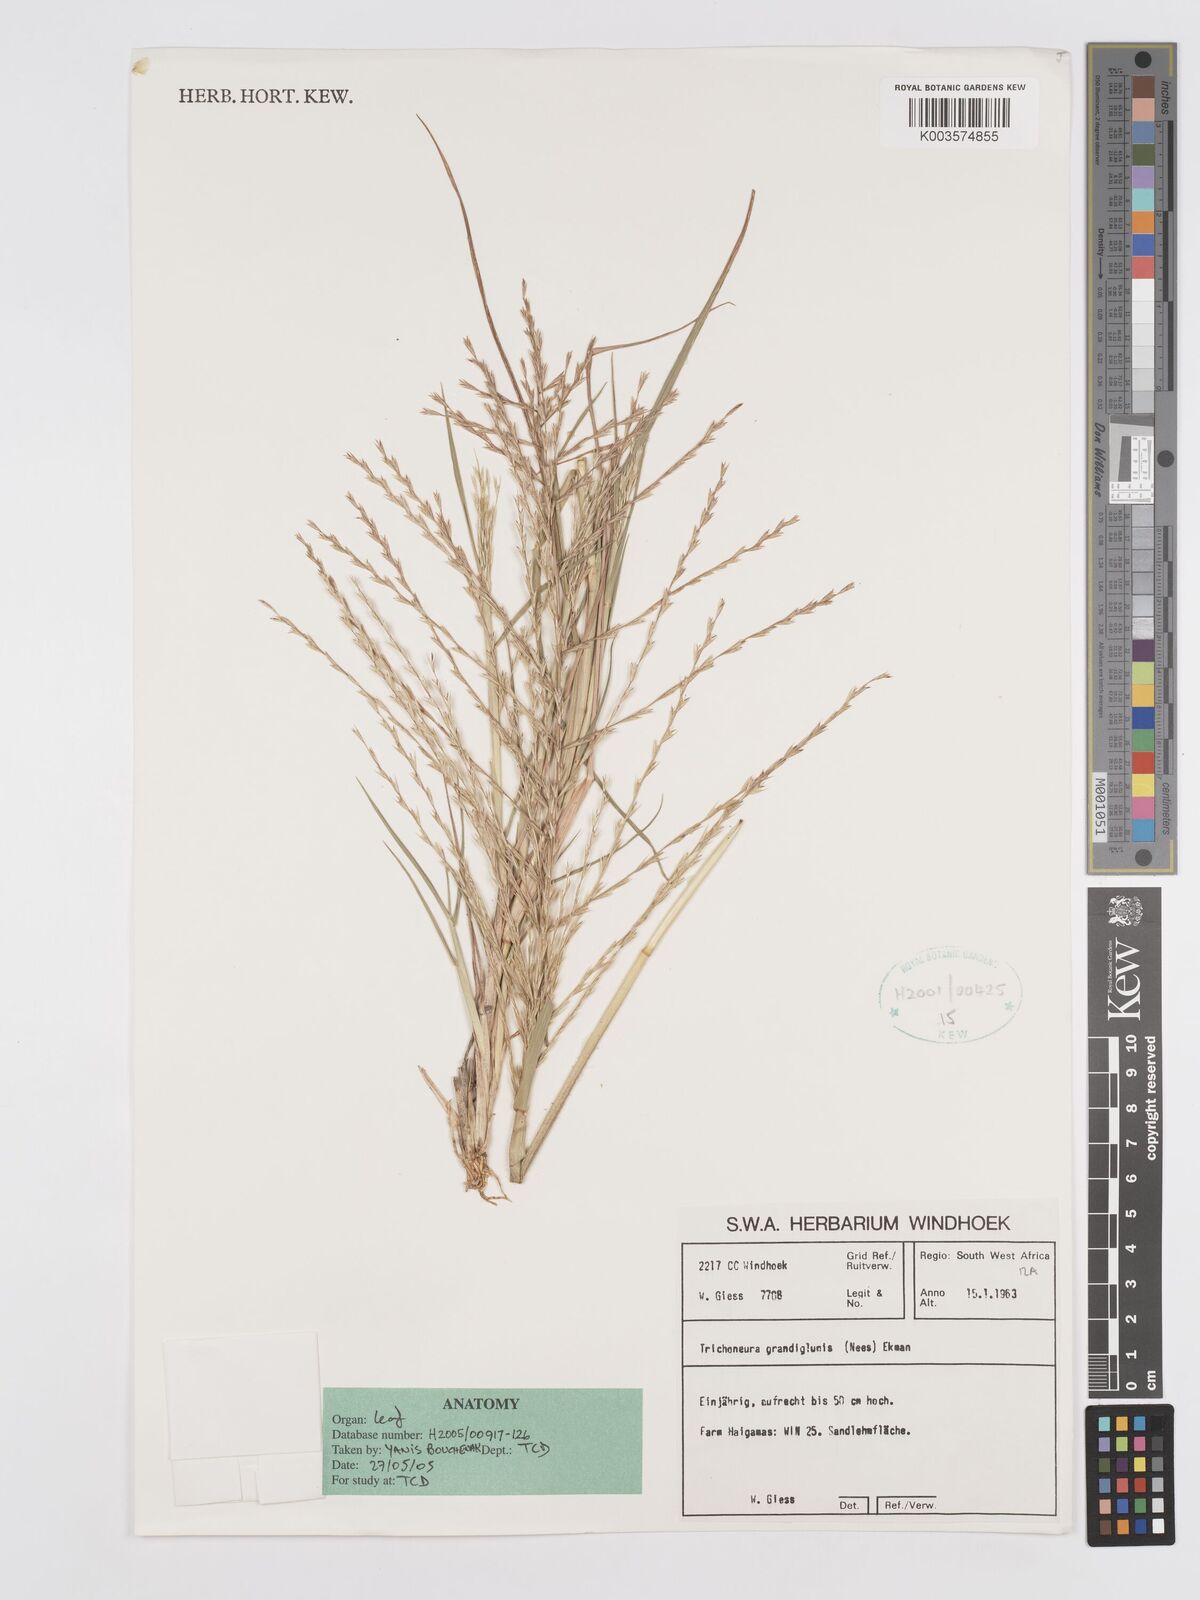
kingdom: Plantae
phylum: Tracheophyta
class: Liliopsida
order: Poales
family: Poaceae
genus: Trichoneura
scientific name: Trichoneura grandiglumis
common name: Rolling grass
